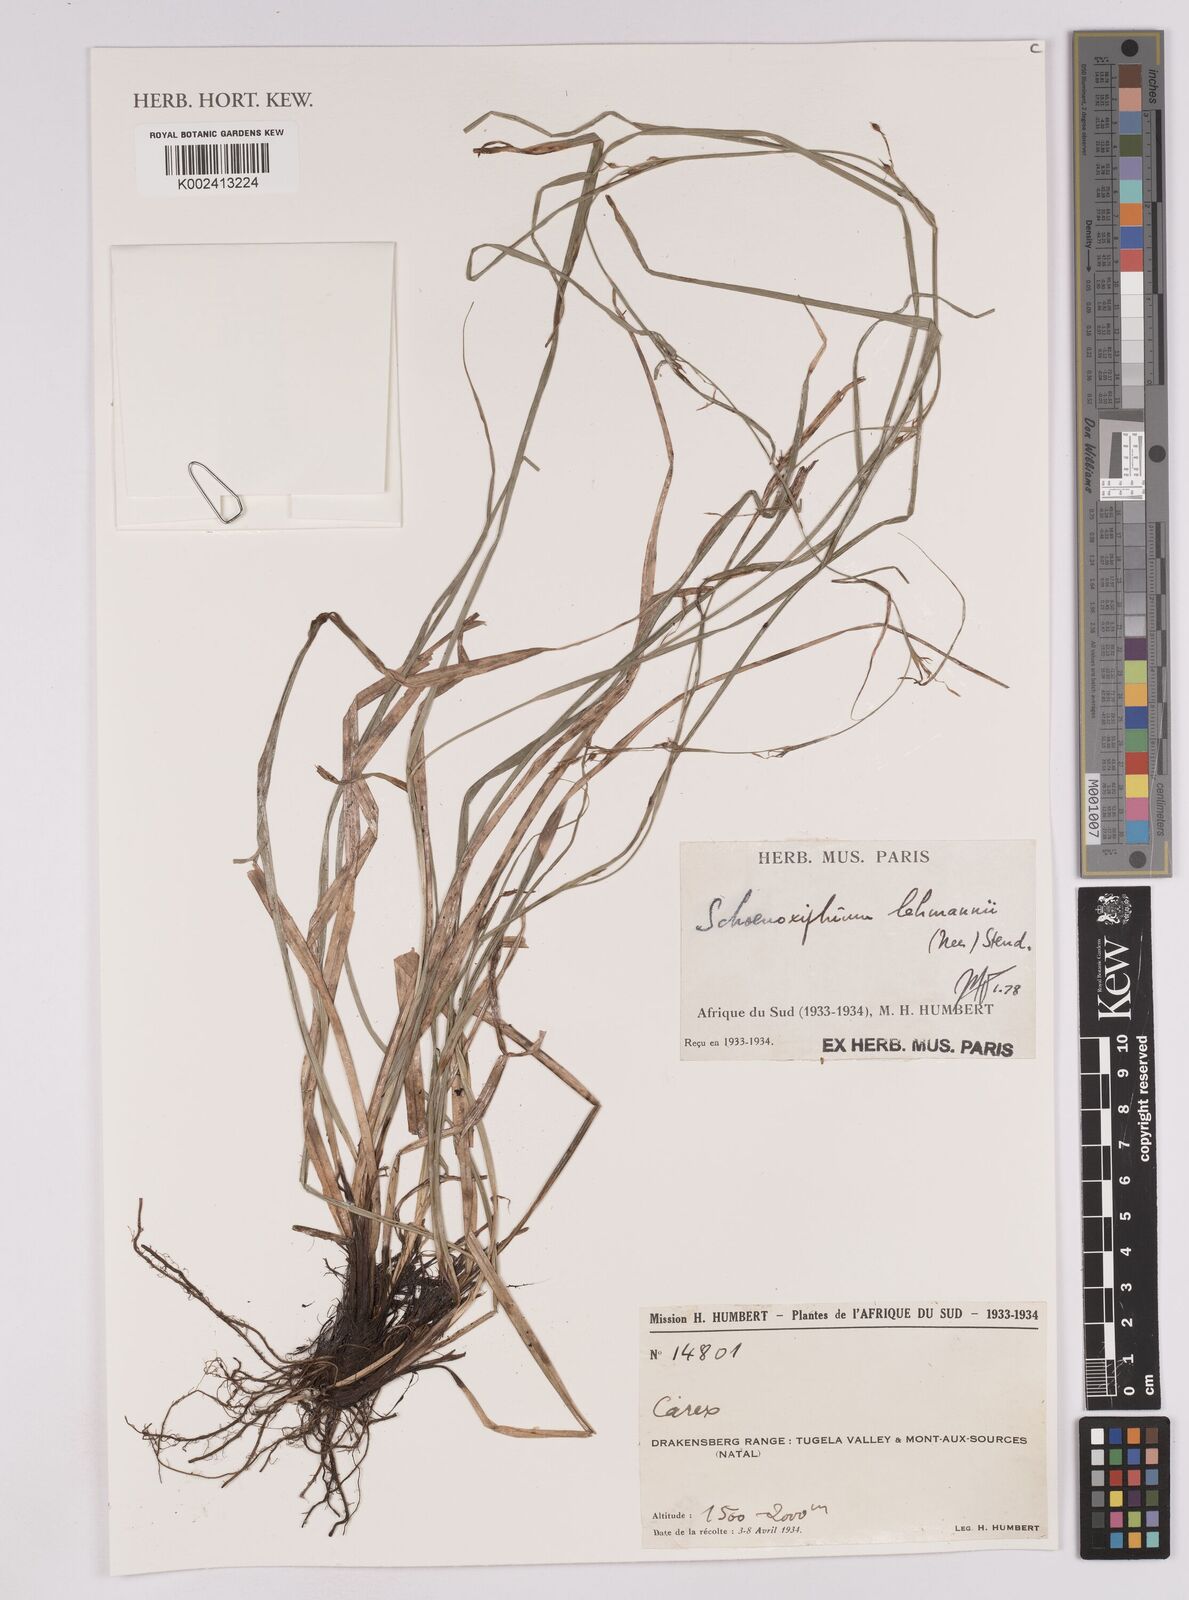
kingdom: Plantae
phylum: Tracheophyta
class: Liliopsida
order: Poales
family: Cyperaceae
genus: Carex
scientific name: Carex schimperiana
